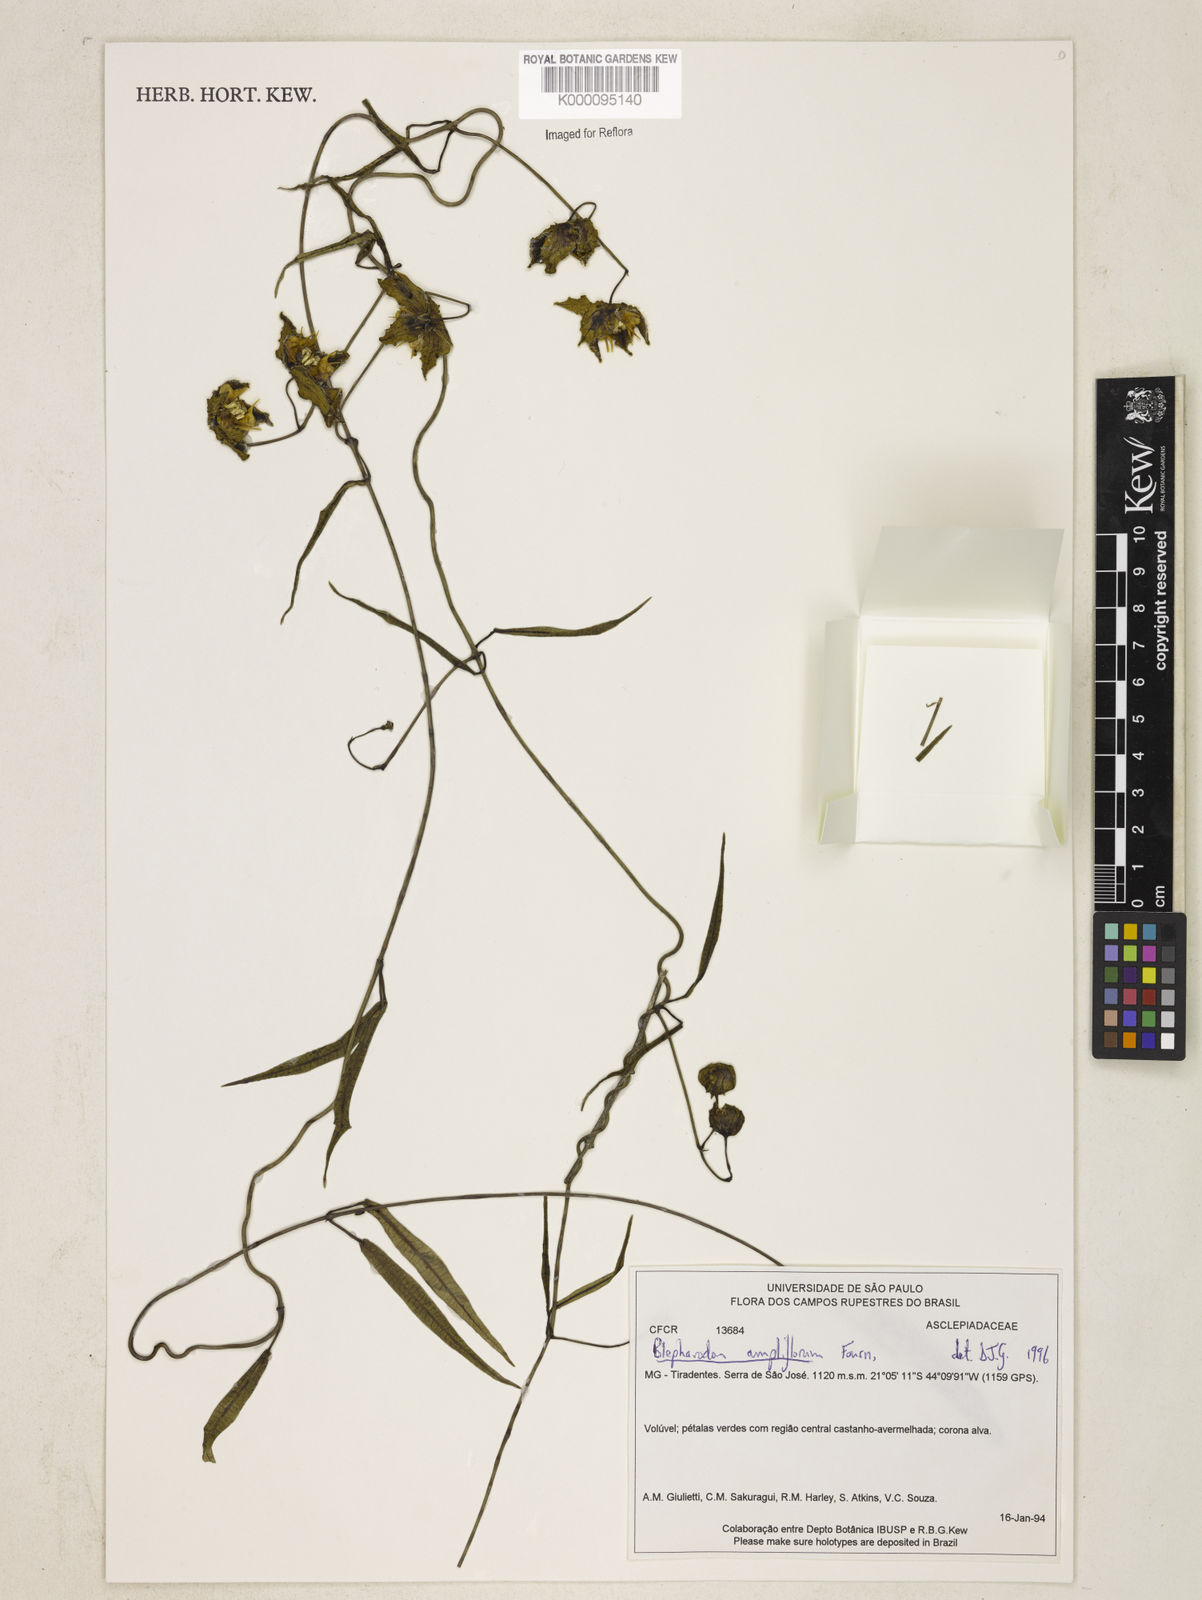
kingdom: Plantae
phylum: Tracheophyta
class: Magnoliopsida
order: Gentianales
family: Apocynaceae
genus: Blepharodon
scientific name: Blepharodon ampliflorum
